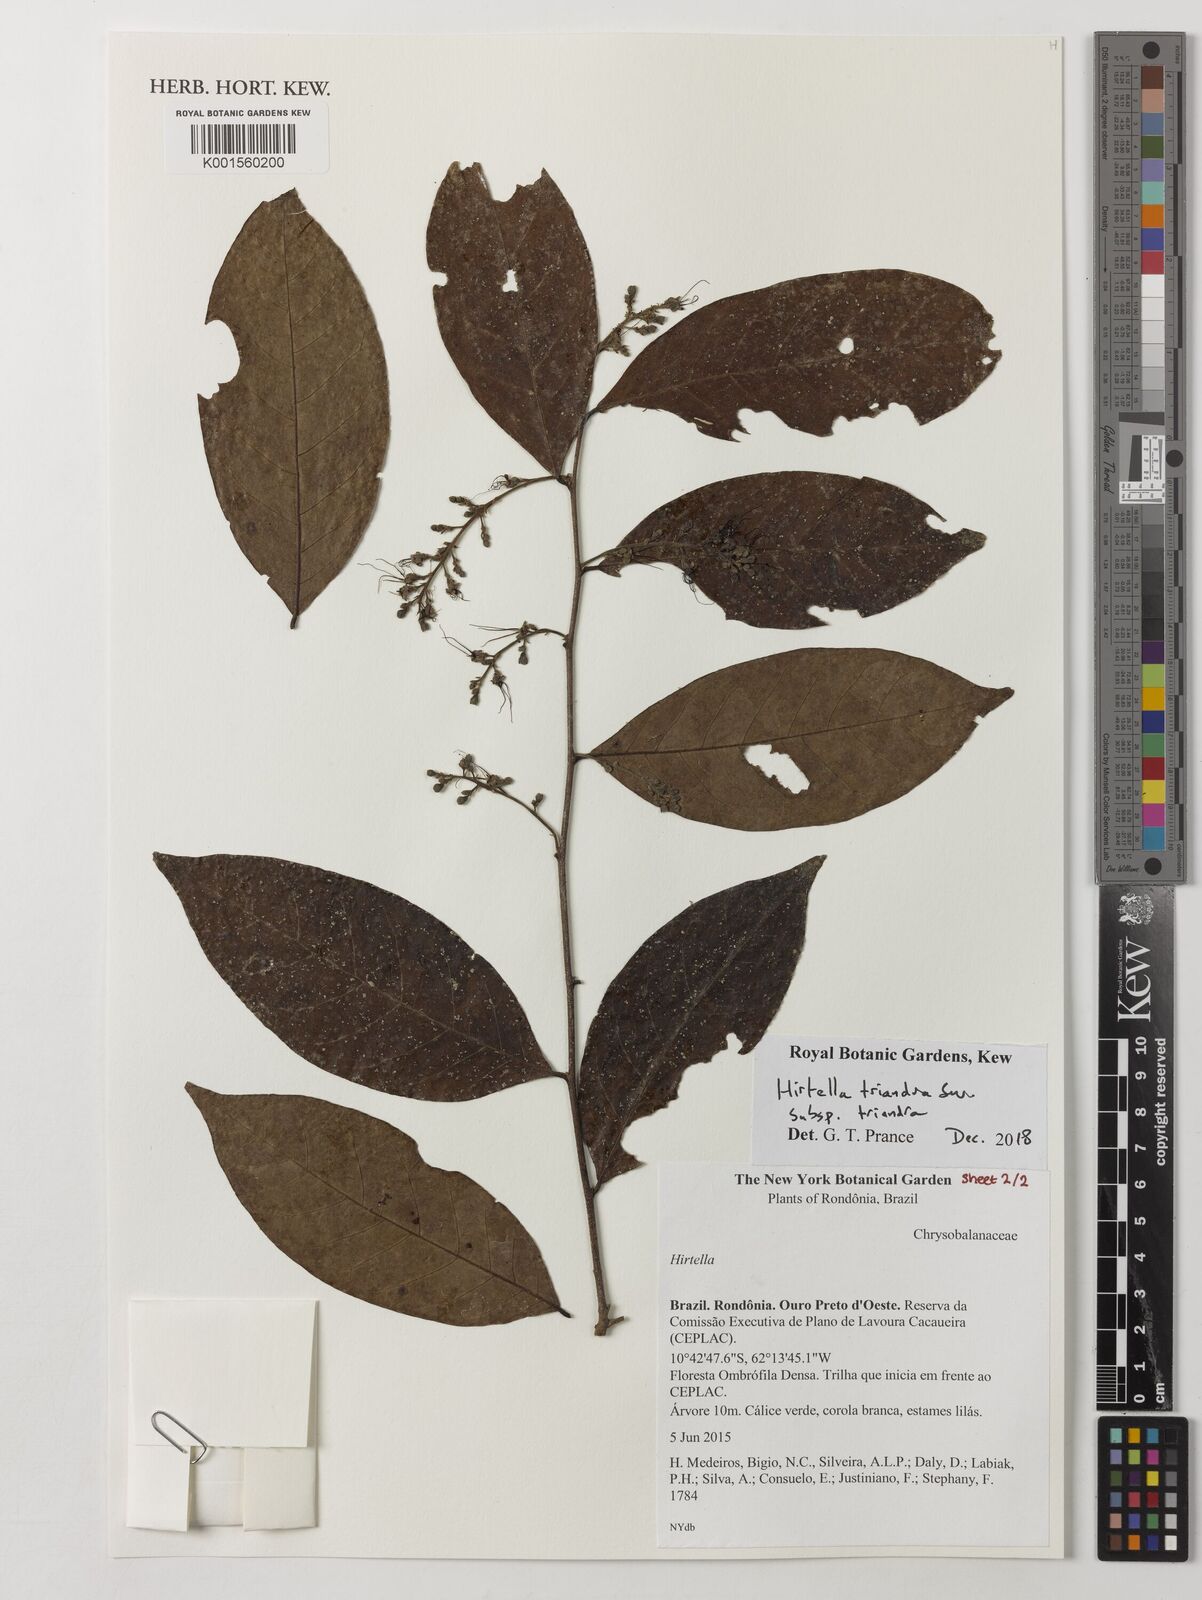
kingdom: Plantae
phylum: Tracheophyta
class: Magnoliopsida
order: Malpighiales
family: Chrysobalanaceae
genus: Hirtella
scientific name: Hirtella triandra
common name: Hairy plum
